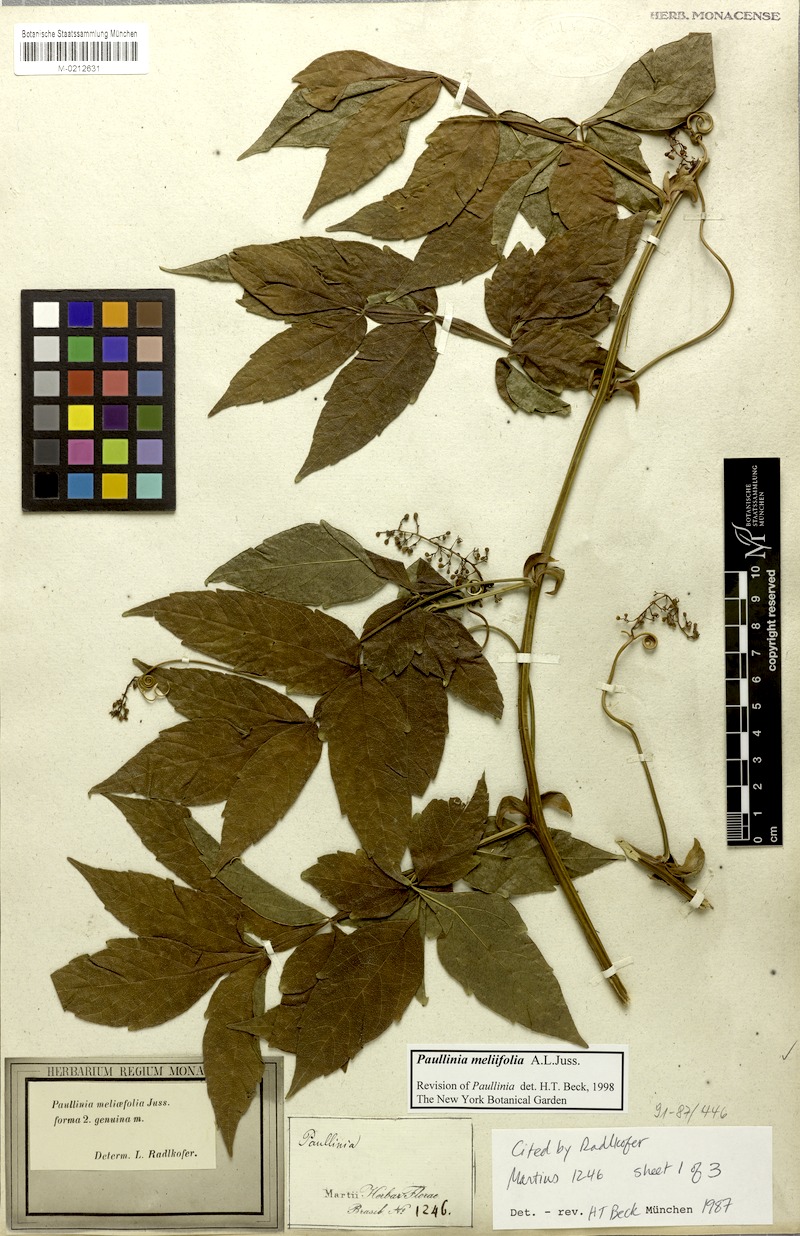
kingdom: Plantae
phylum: Tracheophyta
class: Magnoliopsida
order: Sapindales
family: Sapindaceae
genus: Paullinia
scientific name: Paullinia meliifolia
